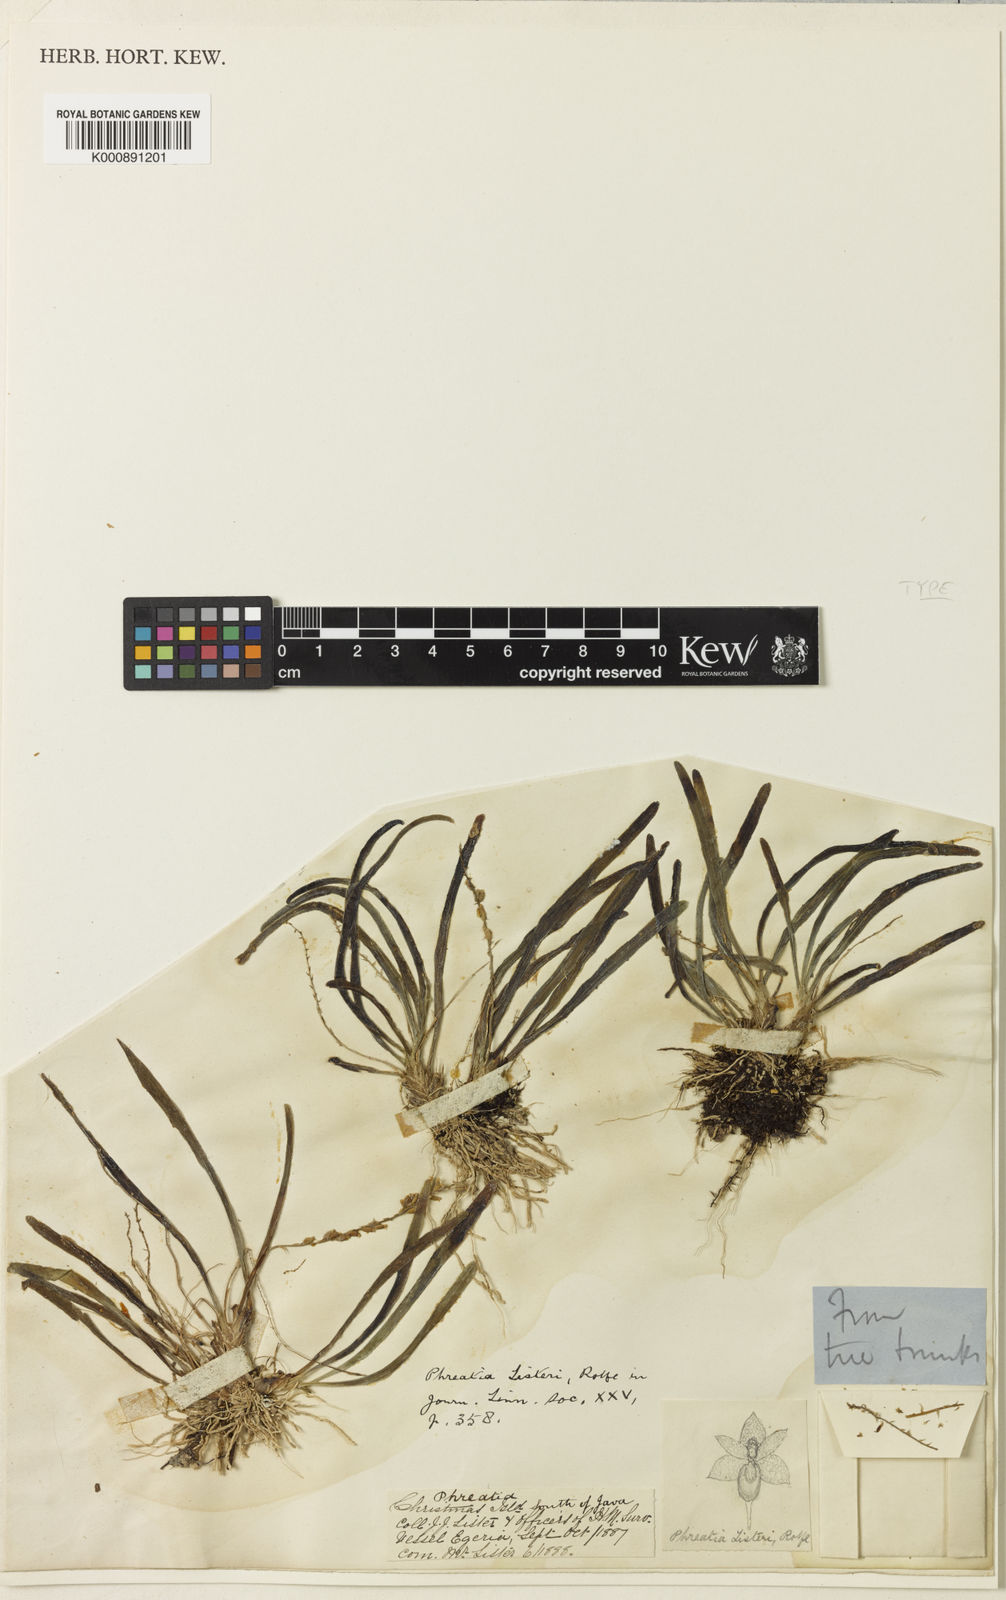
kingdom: Plantae
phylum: Tracheophyta
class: Liliopsida
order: Asparagales
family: Orchidaceae
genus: Phreatia
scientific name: Phreatia listeri
